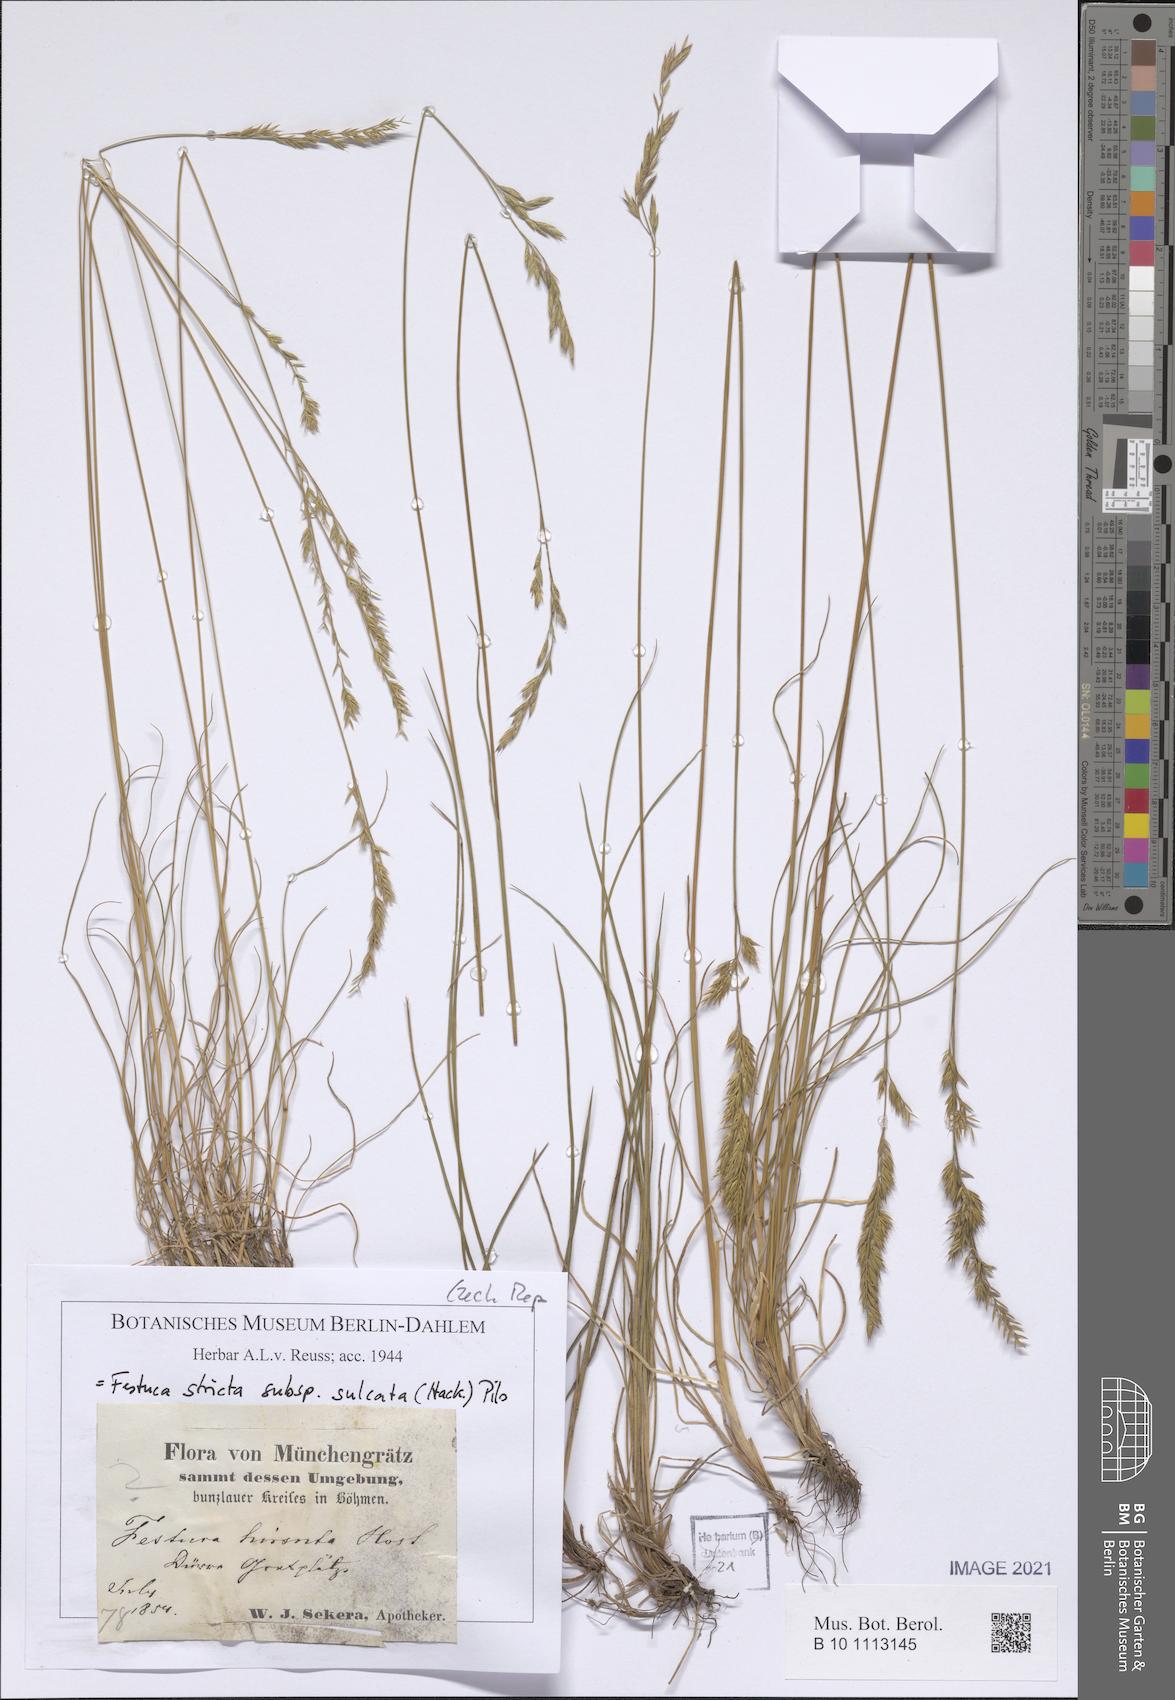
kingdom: Plantae
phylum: Tracheophyta
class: Liliopsida
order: Poales
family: Poaceae
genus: Festuca
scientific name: Festuca rupicola
